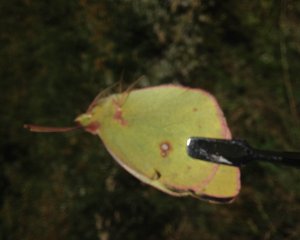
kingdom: Animalia
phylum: Arthropoda
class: Insecta
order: Lepidoptera
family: Pieridae
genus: Colias
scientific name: Colias philodice
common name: Clouded Sulphur
